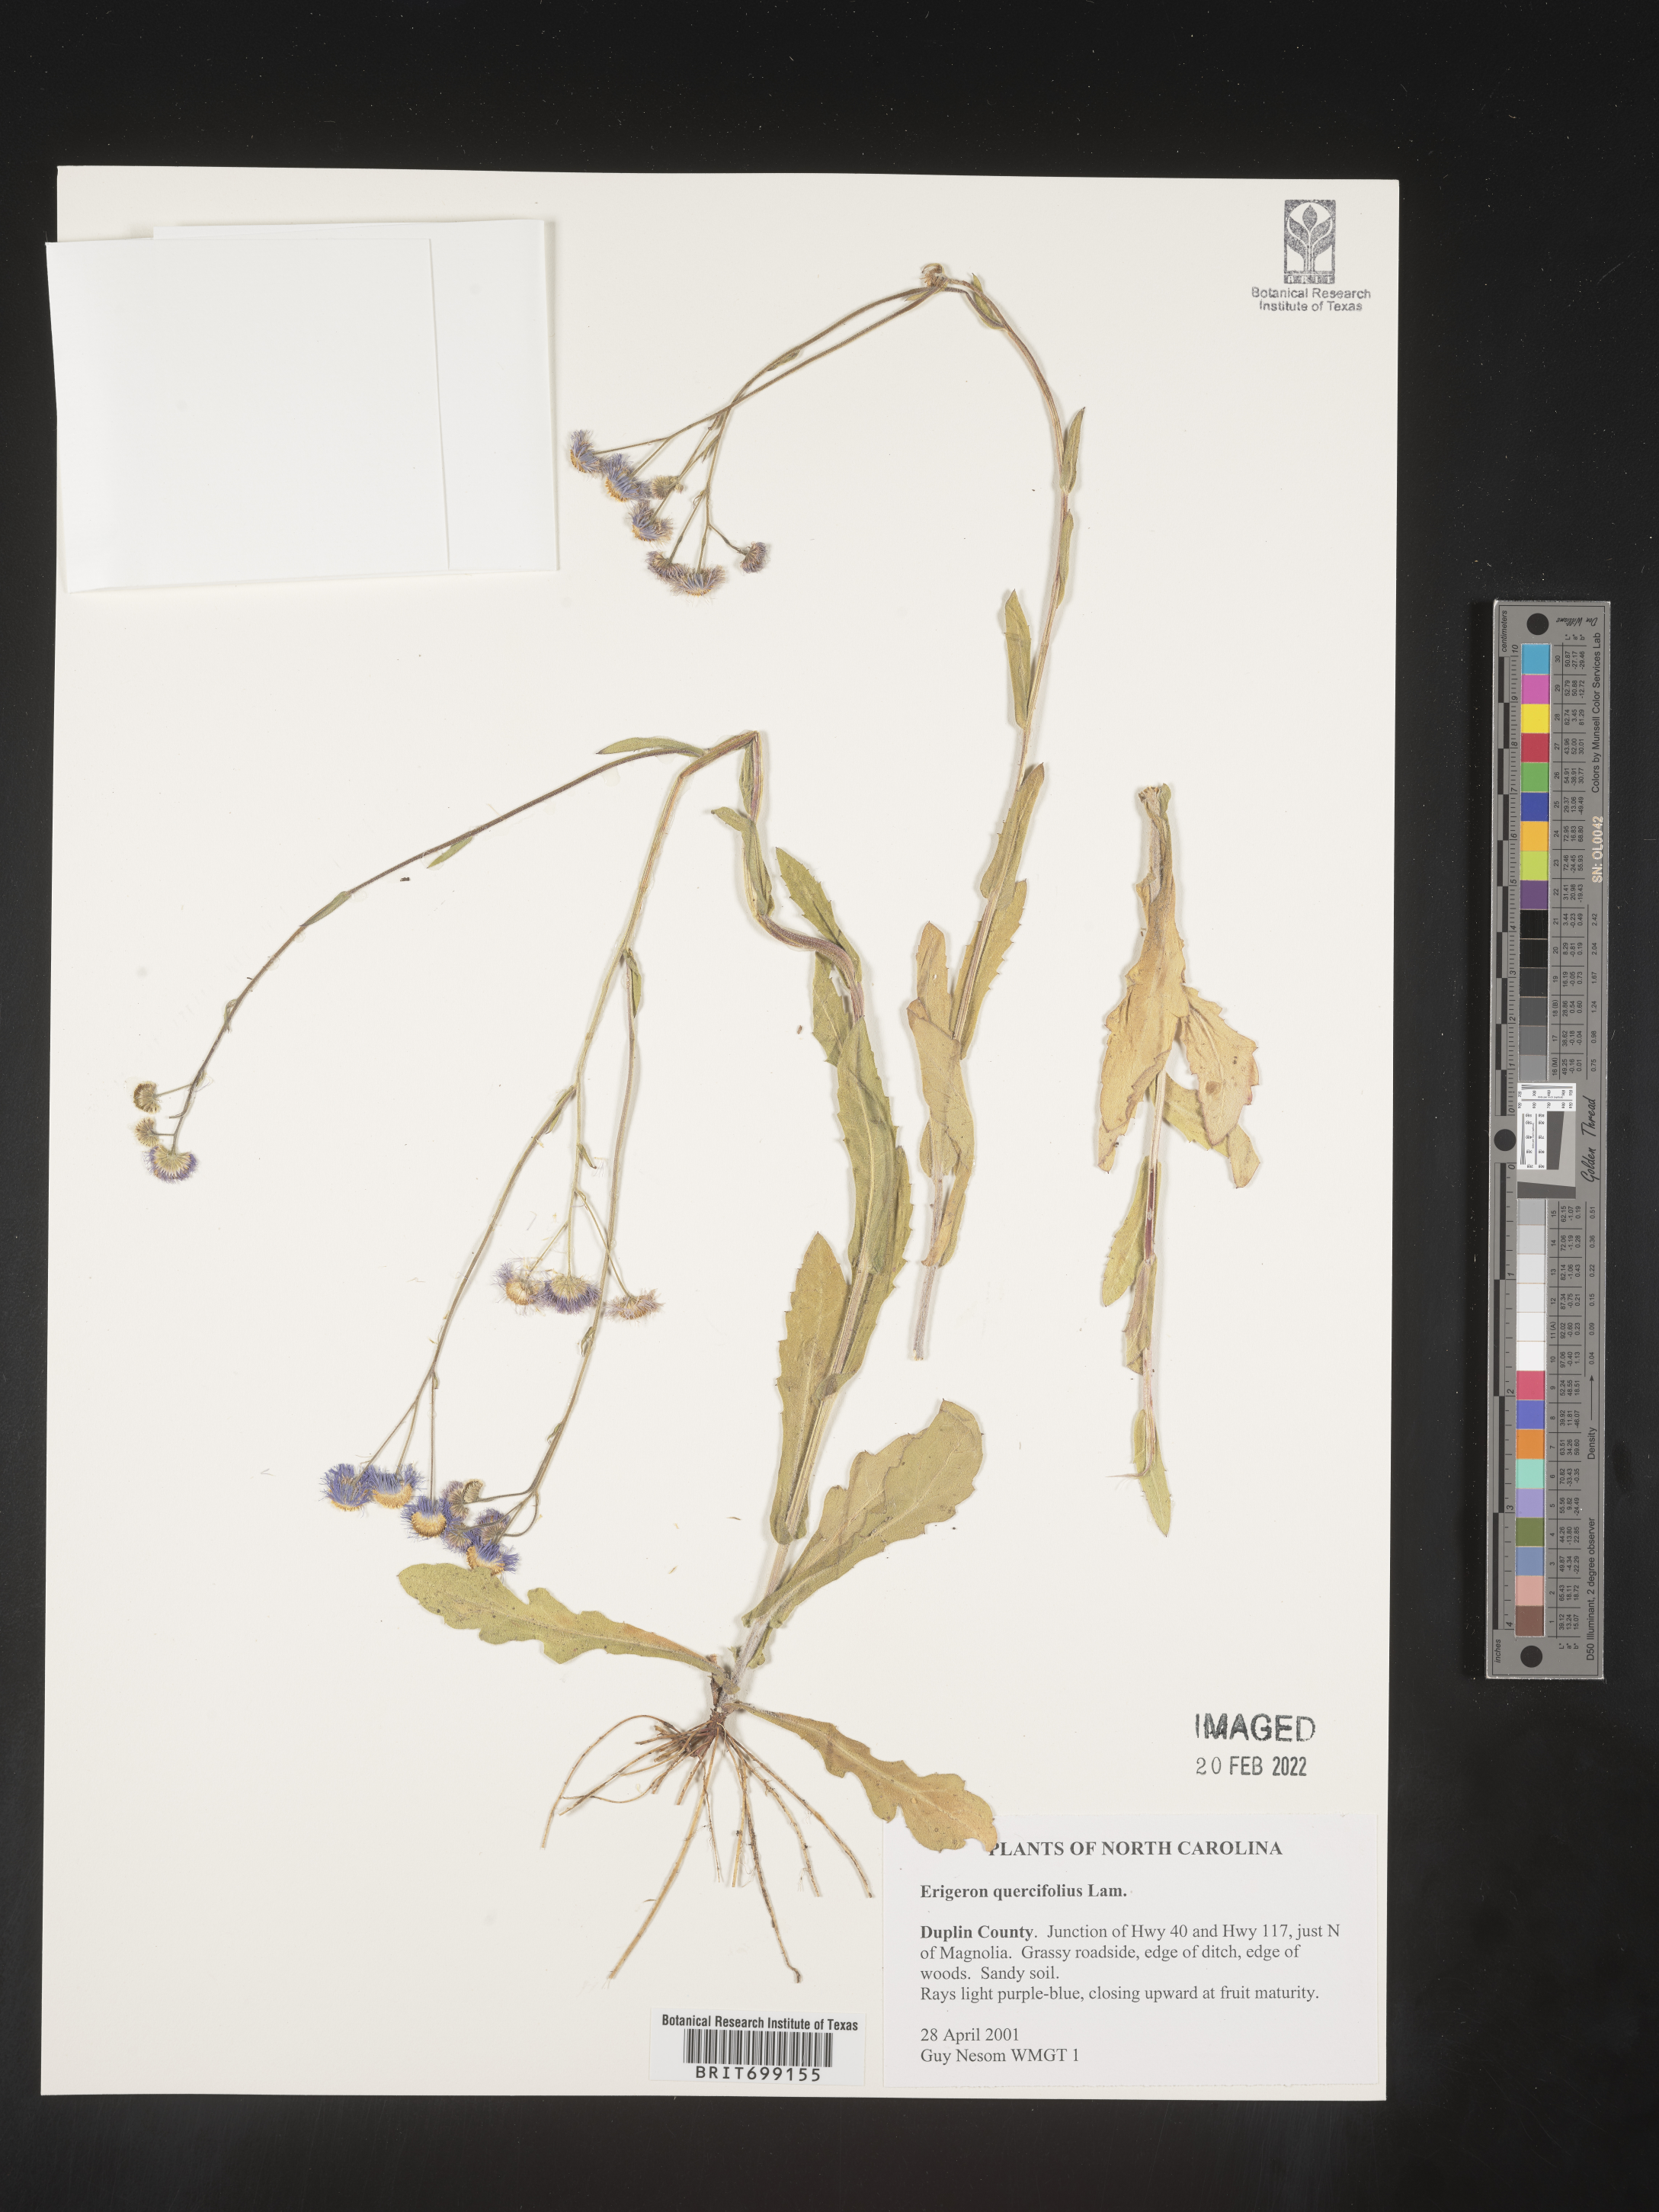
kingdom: Plantae
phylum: Tracheophyta
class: Magnoliopsida
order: Asterales
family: Asteraceae
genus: Erigeron
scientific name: Erigeron quercifolius
